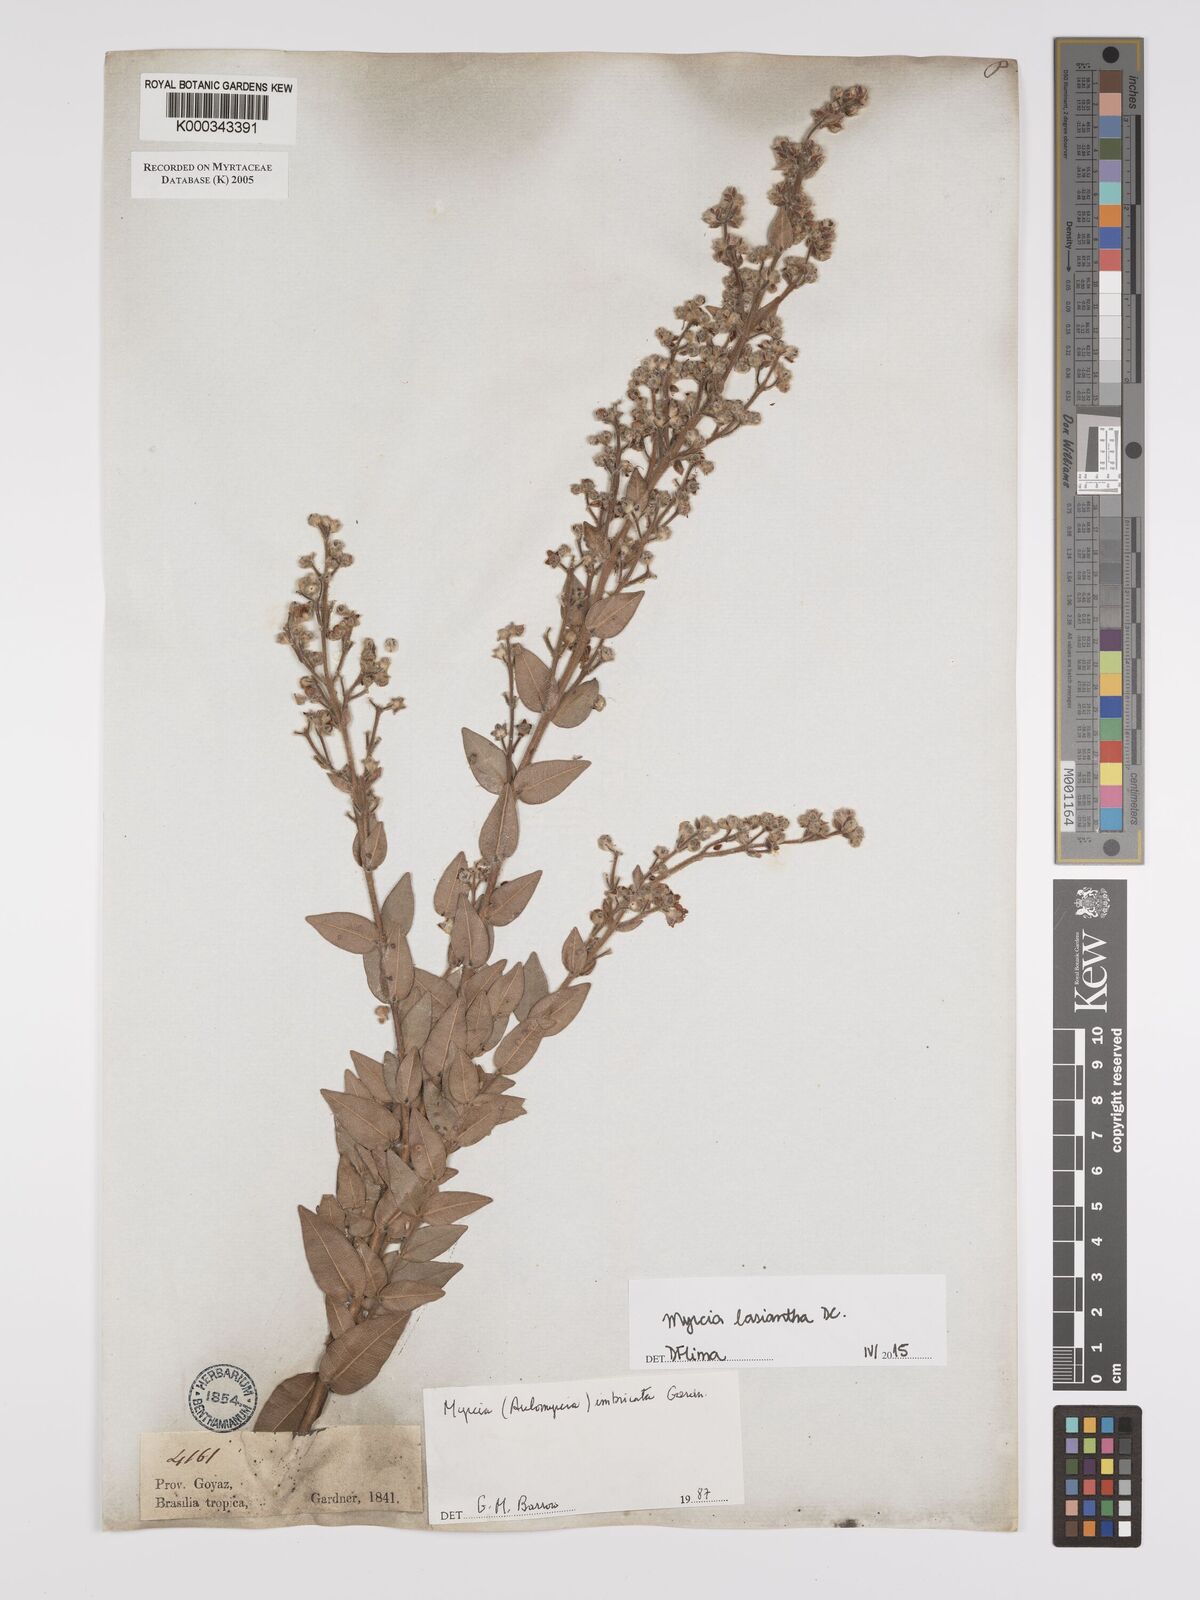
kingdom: Plantae
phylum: Tracheophyta
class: Magnoliopsida
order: Myrtales
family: Myrtaceae
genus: Myrcia
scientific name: Myrcia racemulosa
